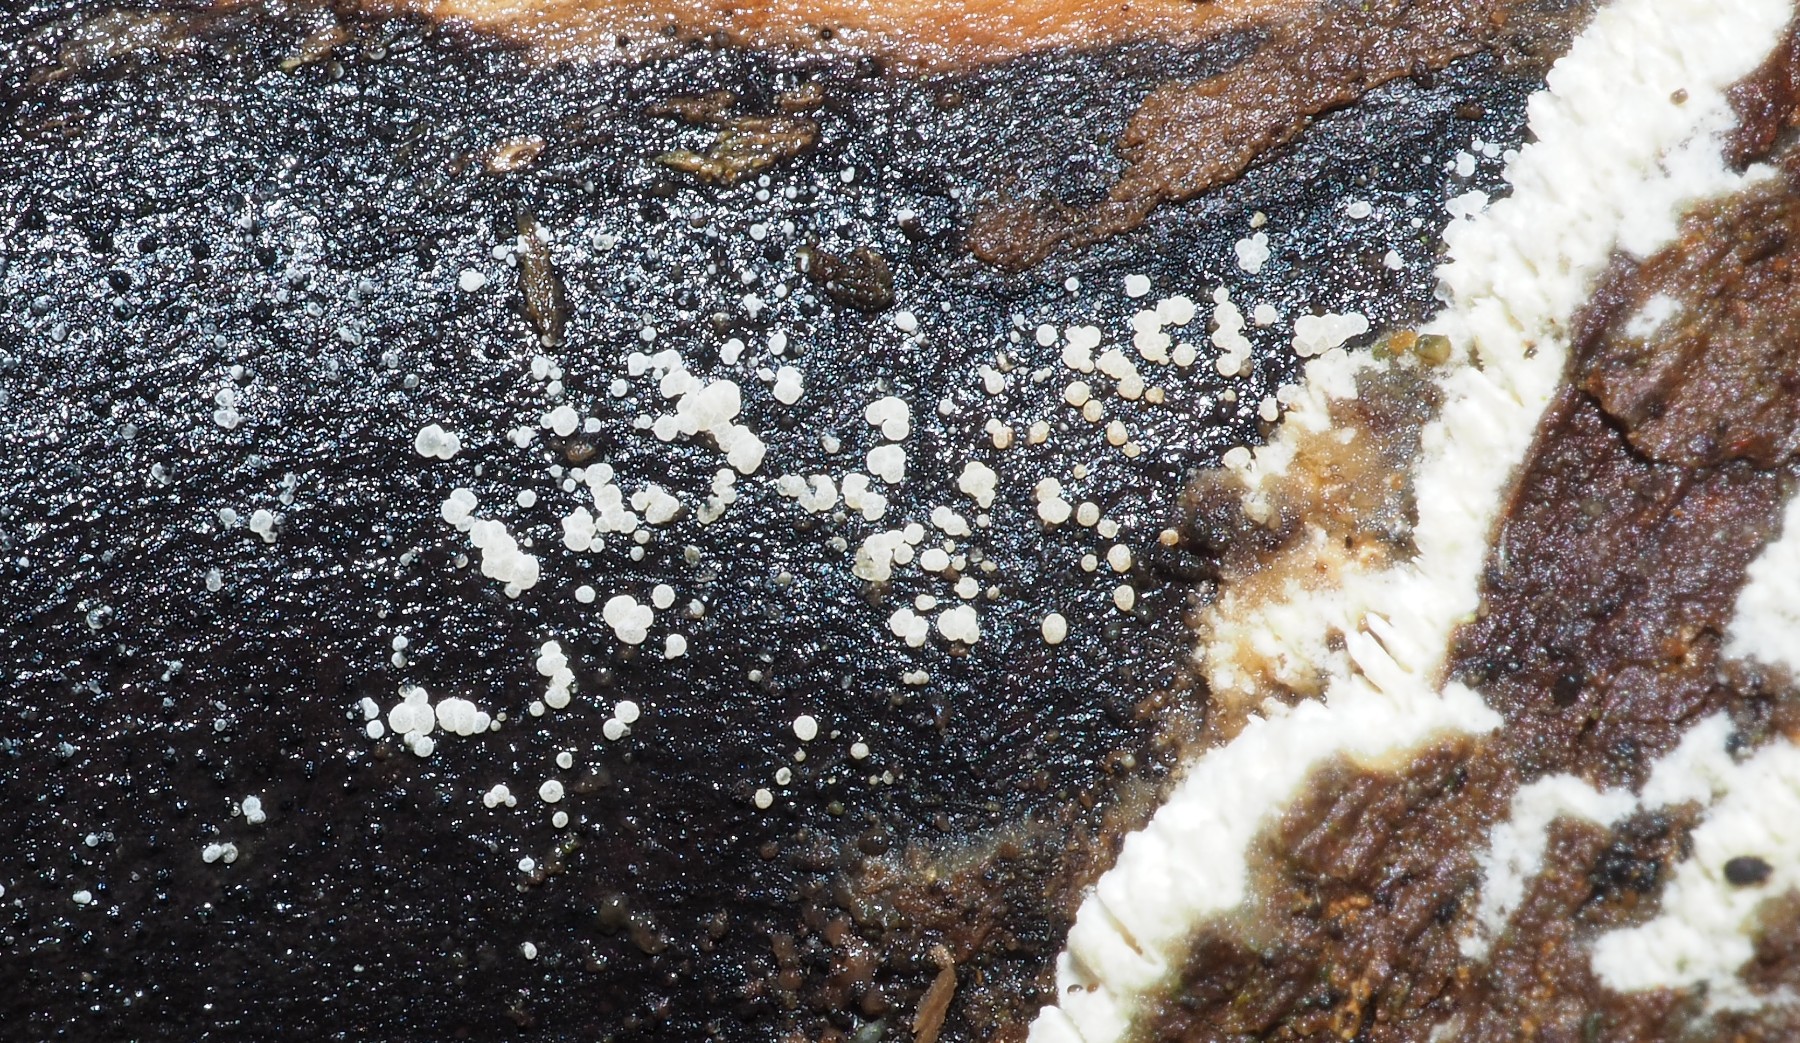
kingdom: Fungi
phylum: Ascomycota
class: Leotiomycetes
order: Helotiales
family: Hyaloscyphaceae
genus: Polydesmia
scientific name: Polydesmia pruinosa
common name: dunskive
